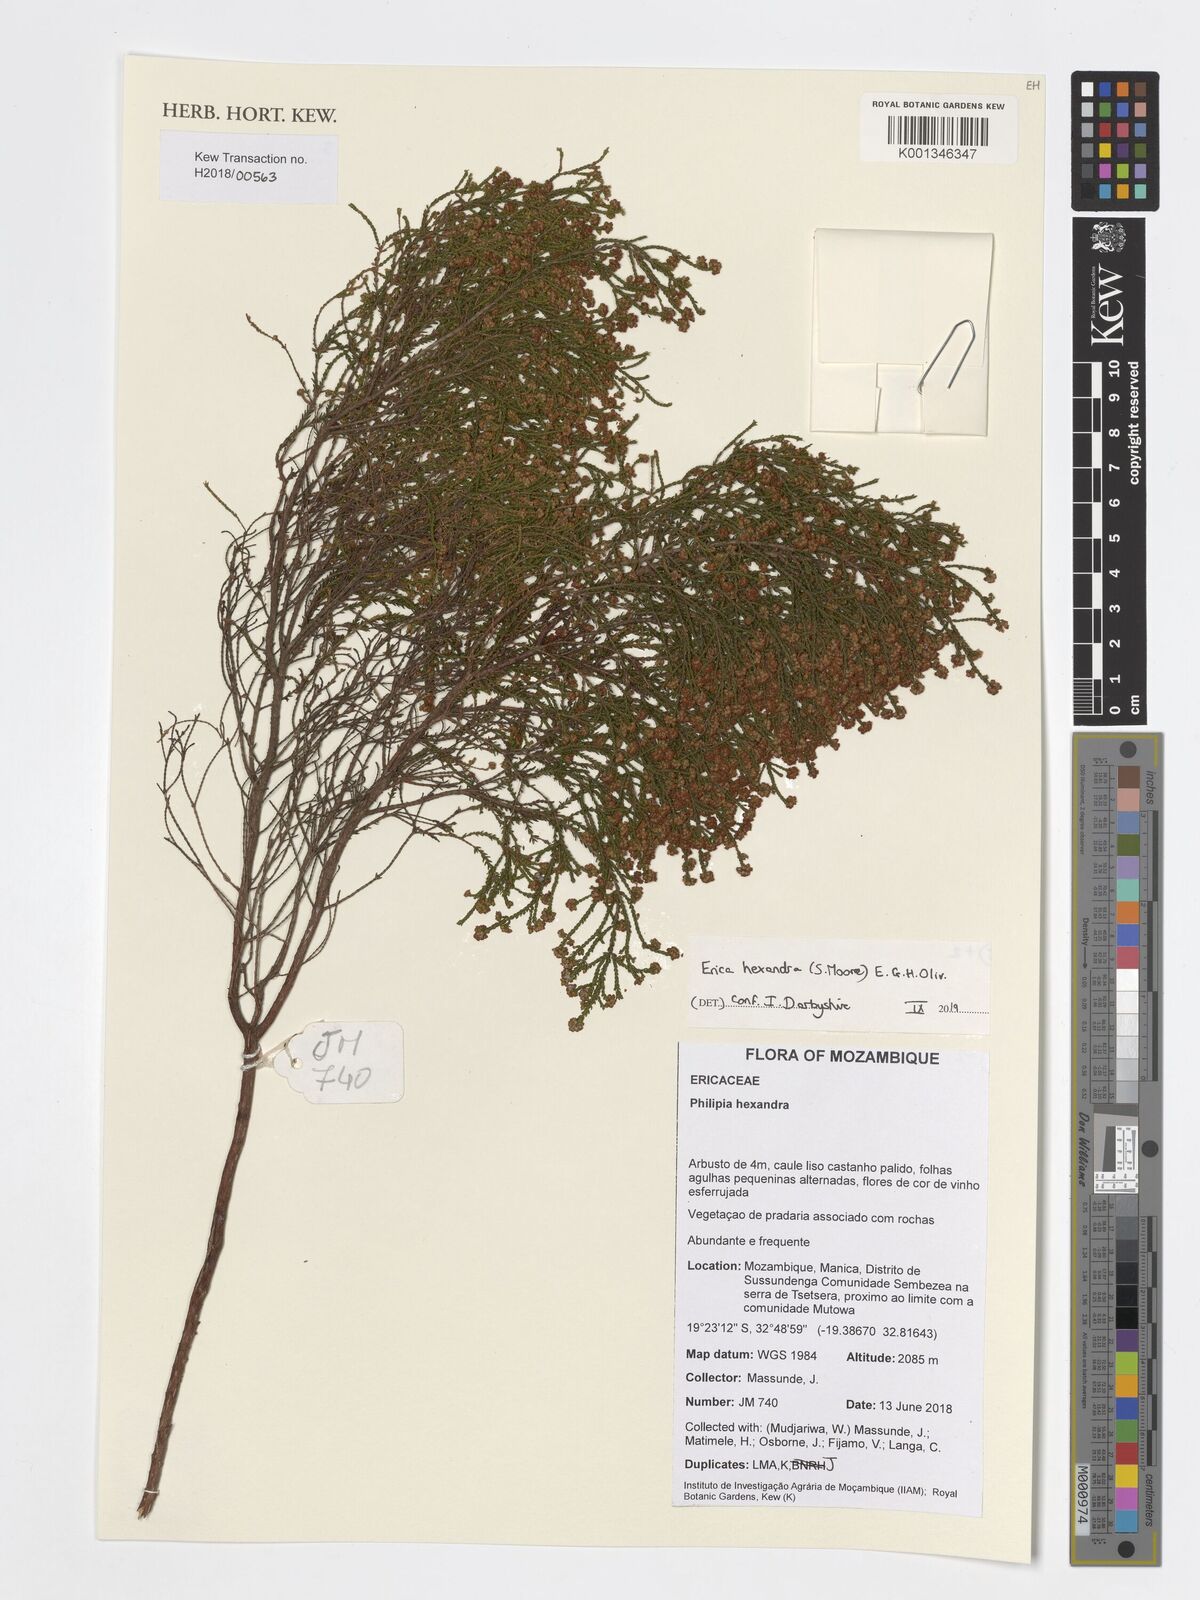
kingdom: Plantae
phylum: Tracheophyta
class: Magnoliopsida
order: Ericales
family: Ericaceae
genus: Erica
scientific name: Erica hexandra
